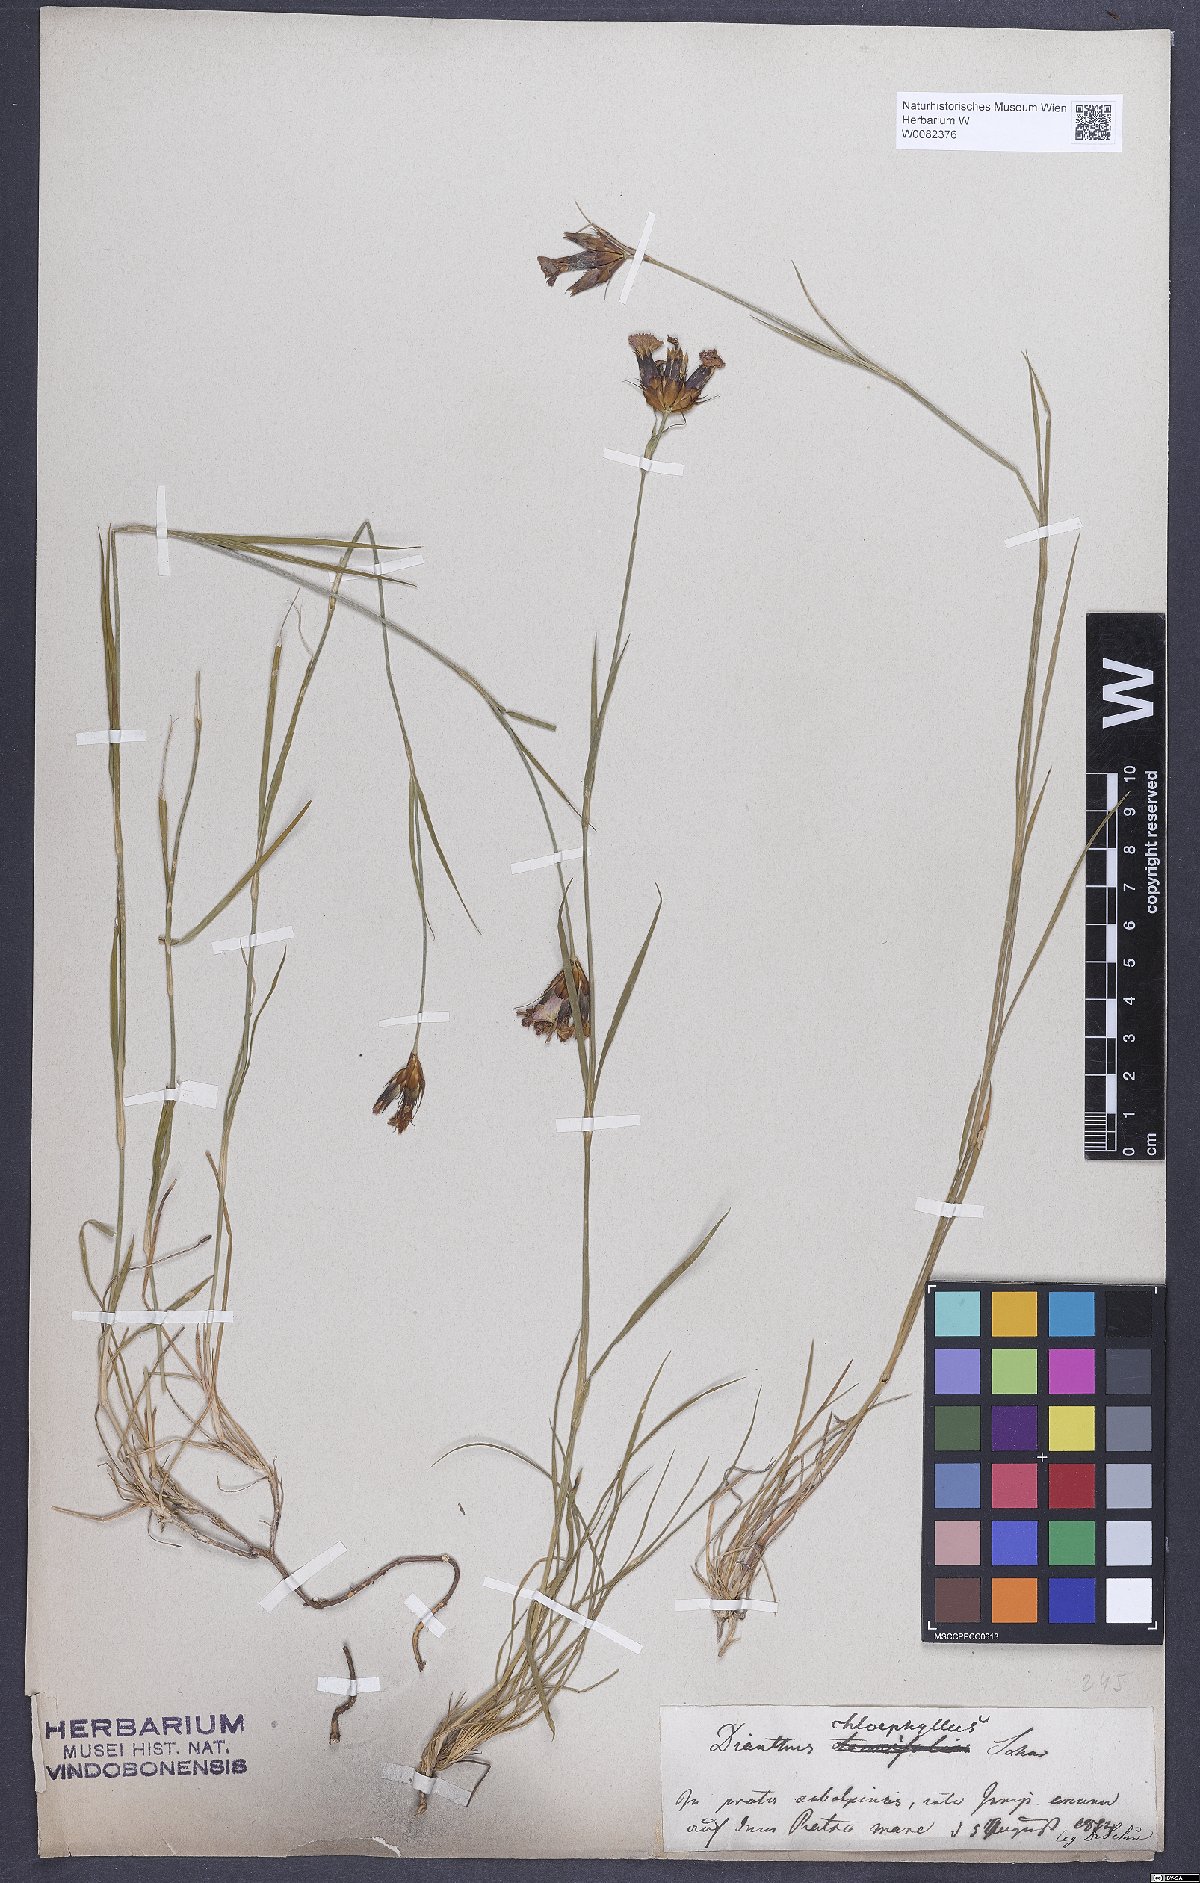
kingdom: Plantae
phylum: Tracheophyta
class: Magnoliopsida
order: Caryophyllales
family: Caryophyllaceae
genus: Dianthus
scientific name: Dianthus carthusianorum
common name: Carthusian pink
